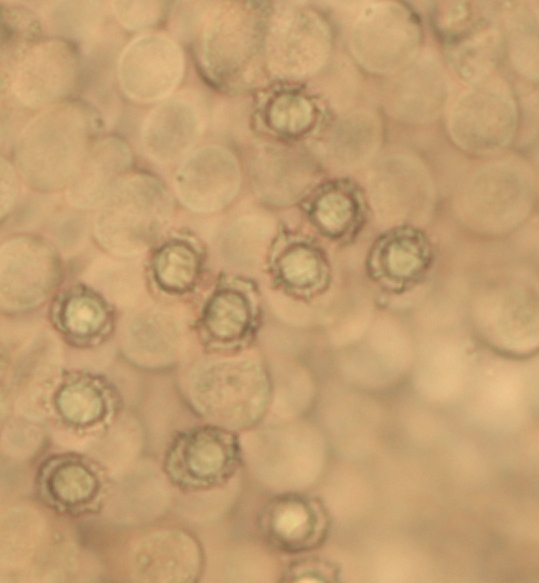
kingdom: Fungi
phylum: Basidiomycota
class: Agaricomycetes
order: Russulales
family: Russulaceae
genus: Lactarius
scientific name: Lactarius obscuratus
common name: elle-mælkehat
